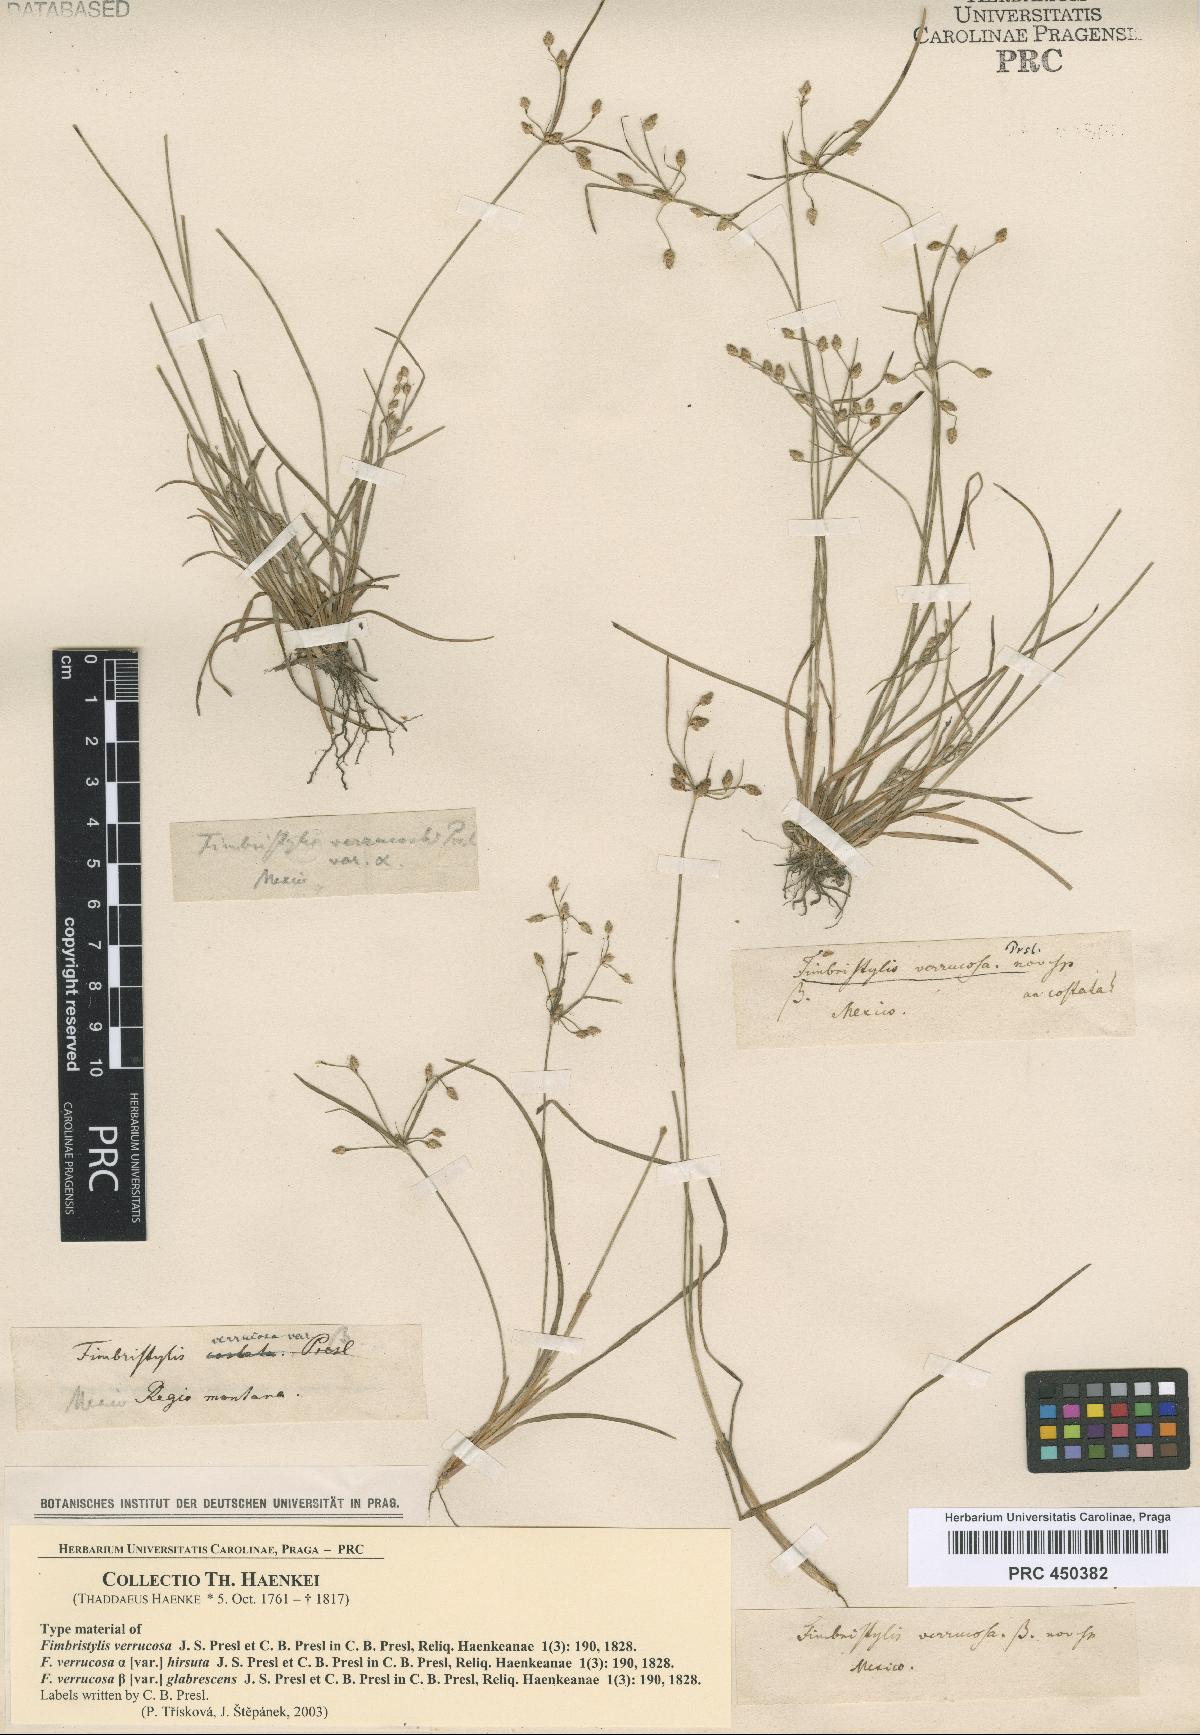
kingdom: Plantae
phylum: Tracheophyta
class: Liliopsida
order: Poales
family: Cyperaceae
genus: Fimbristylis
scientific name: Fimbristylis dichotoma
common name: Forked fimbry
